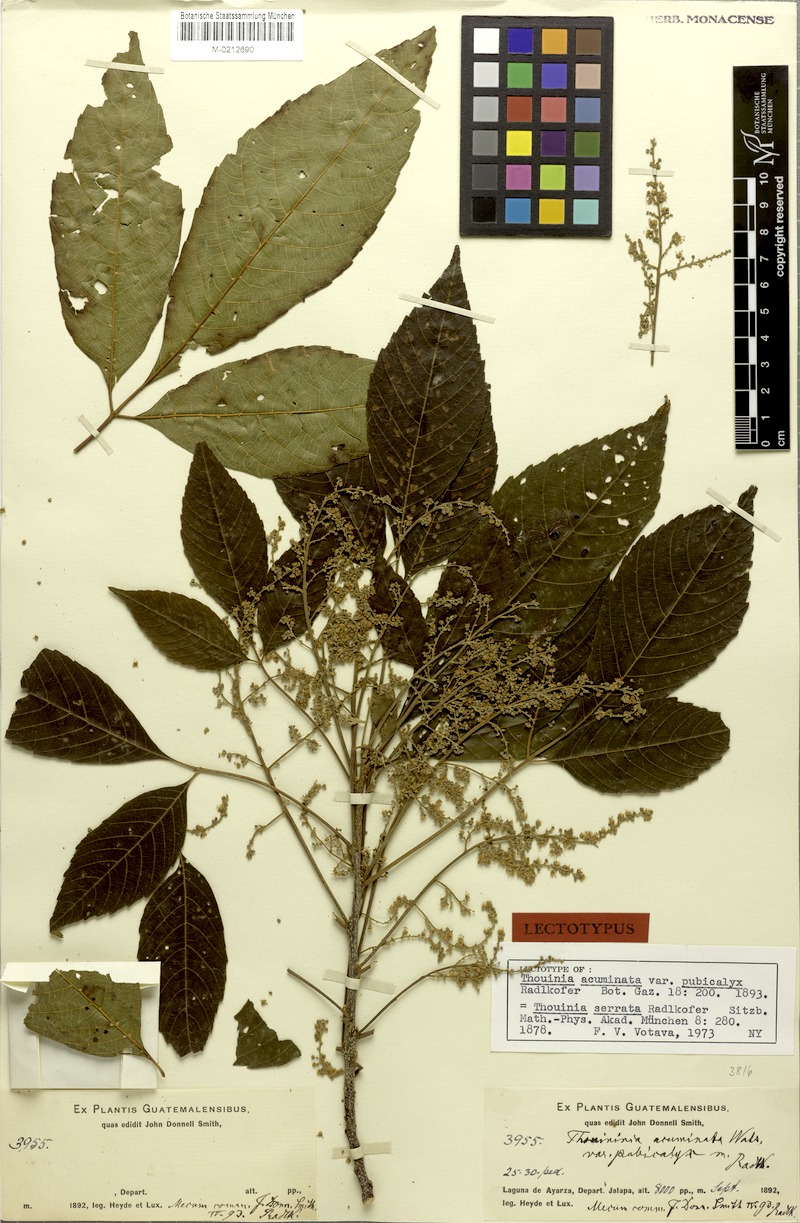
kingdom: Plantae
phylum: Tracheophyta
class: Magnoliopsida
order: Sapindales
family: Sapindaceae
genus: Thouinia
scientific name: Thouinia serrata
